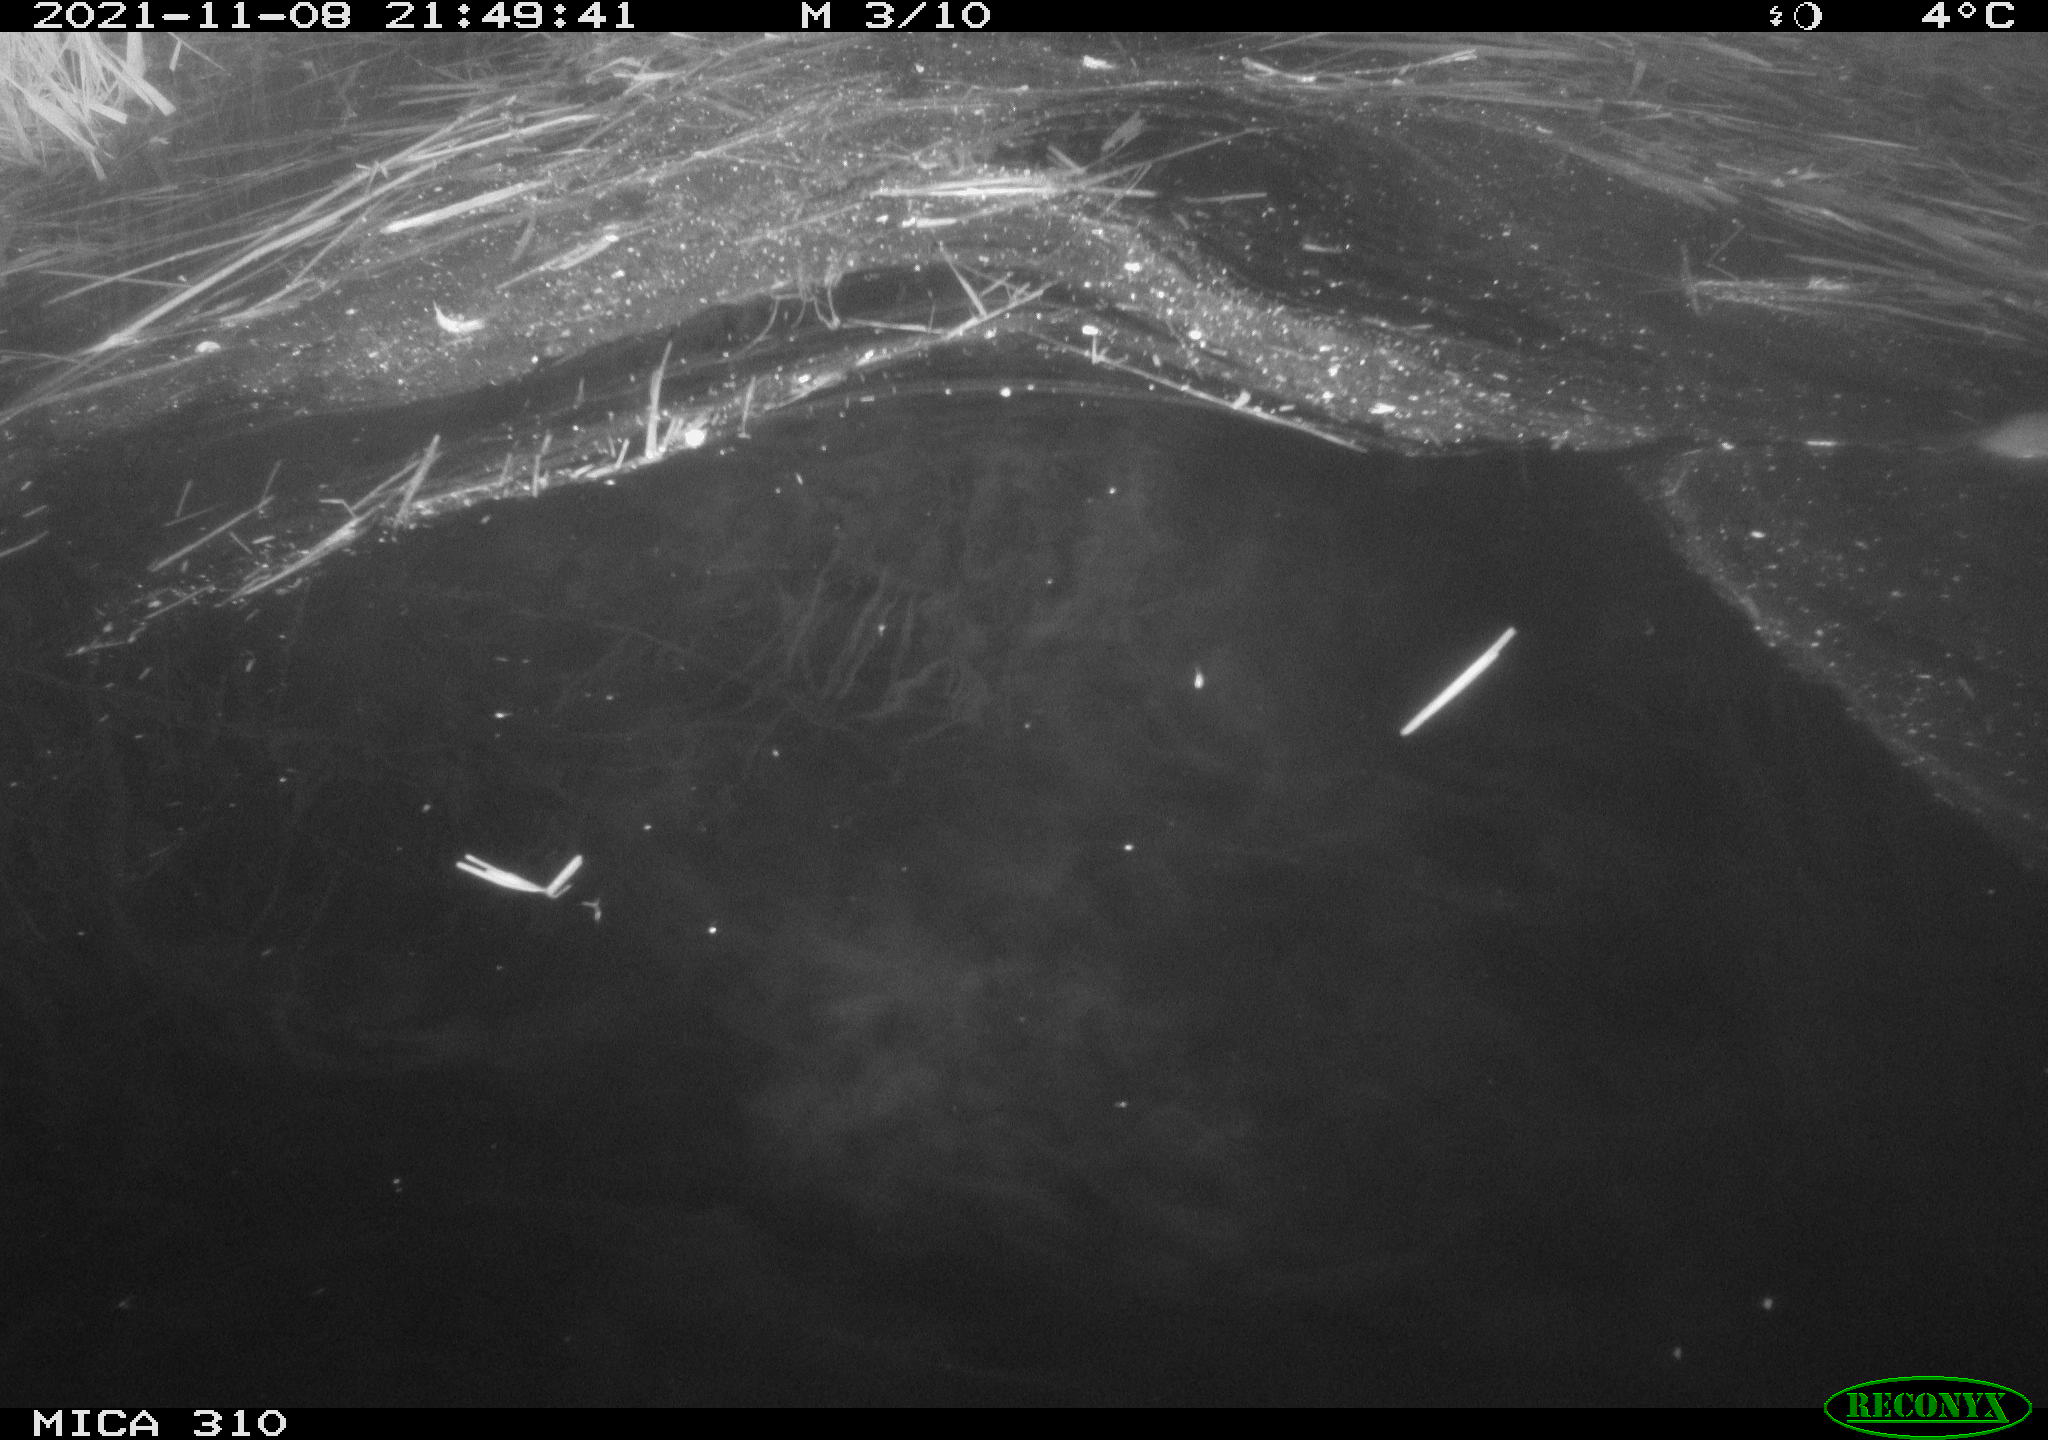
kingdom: Animalia
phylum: Chordata
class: Mammalia
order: Rodentia
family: Muridae
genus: Rattus
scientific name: Rattus norvegicus
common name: Brown rat
